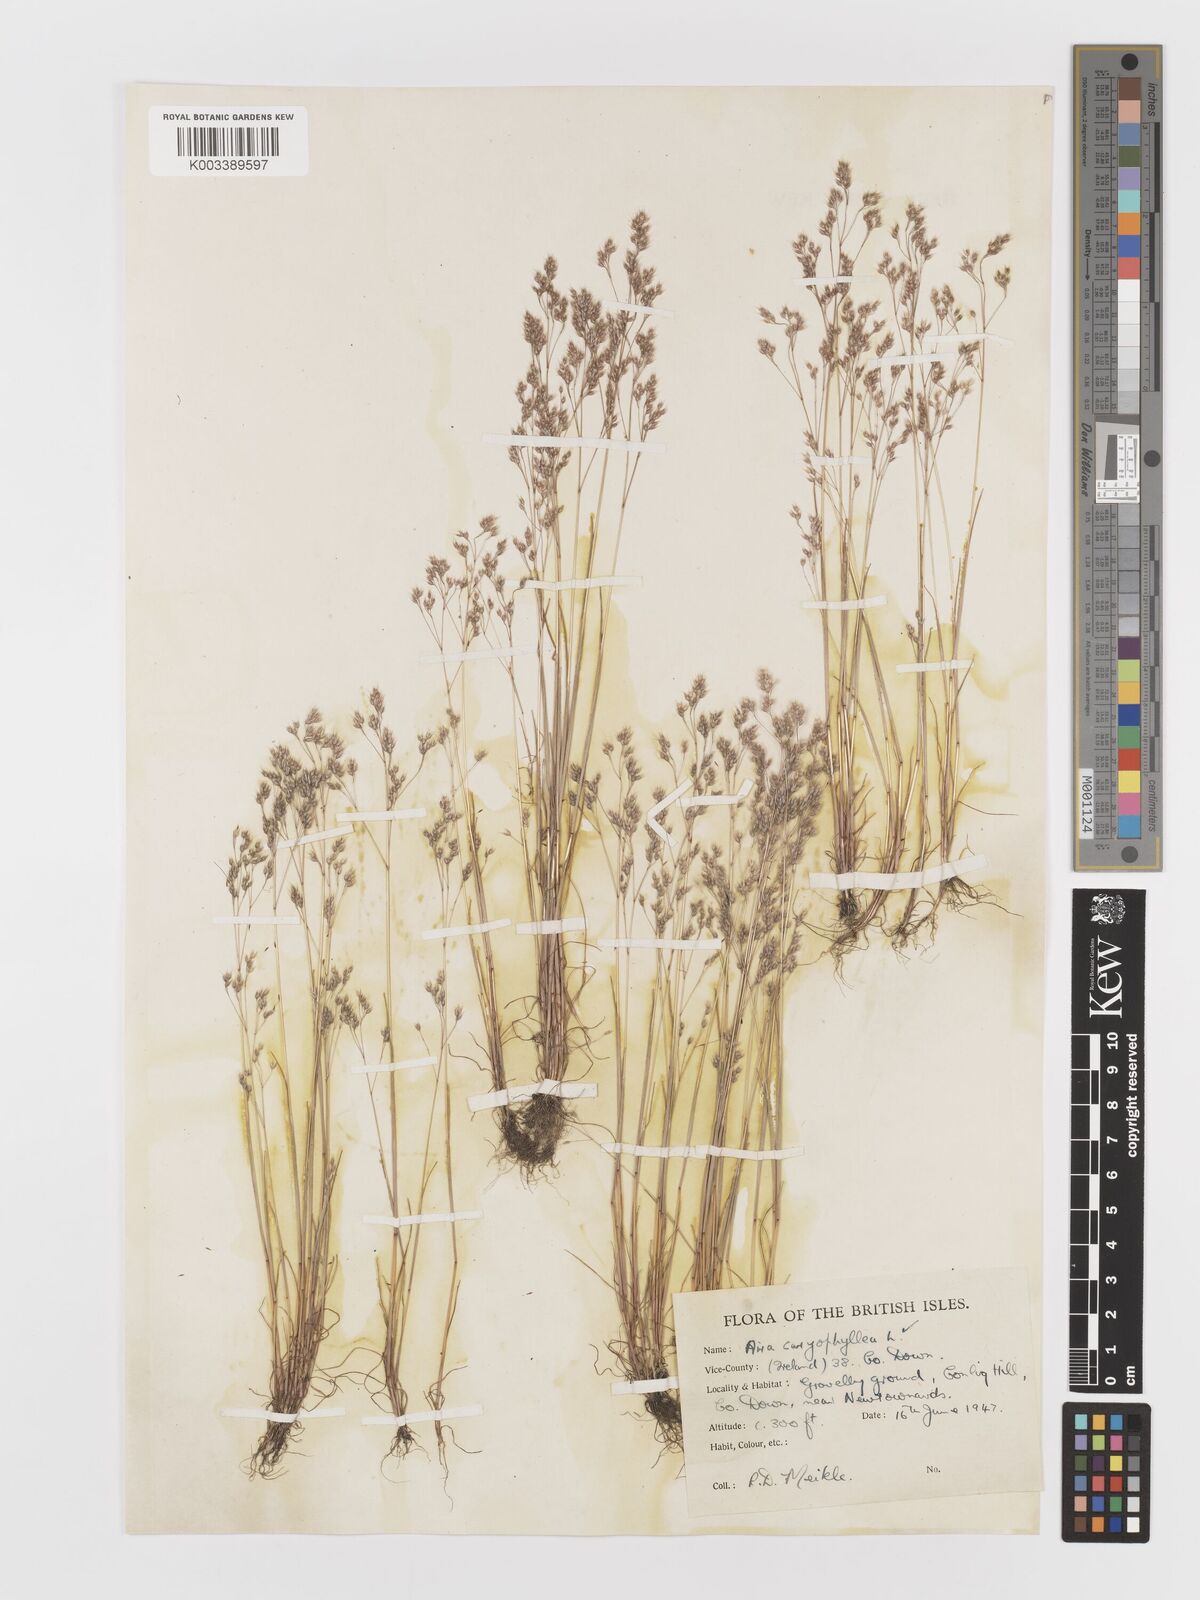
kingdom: Plantae
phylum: Tracheophyta
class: Liliopsida
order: Poales
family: Poaceae
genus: Aira
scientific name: Aira caryophyllea
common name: Silver hairgrass
